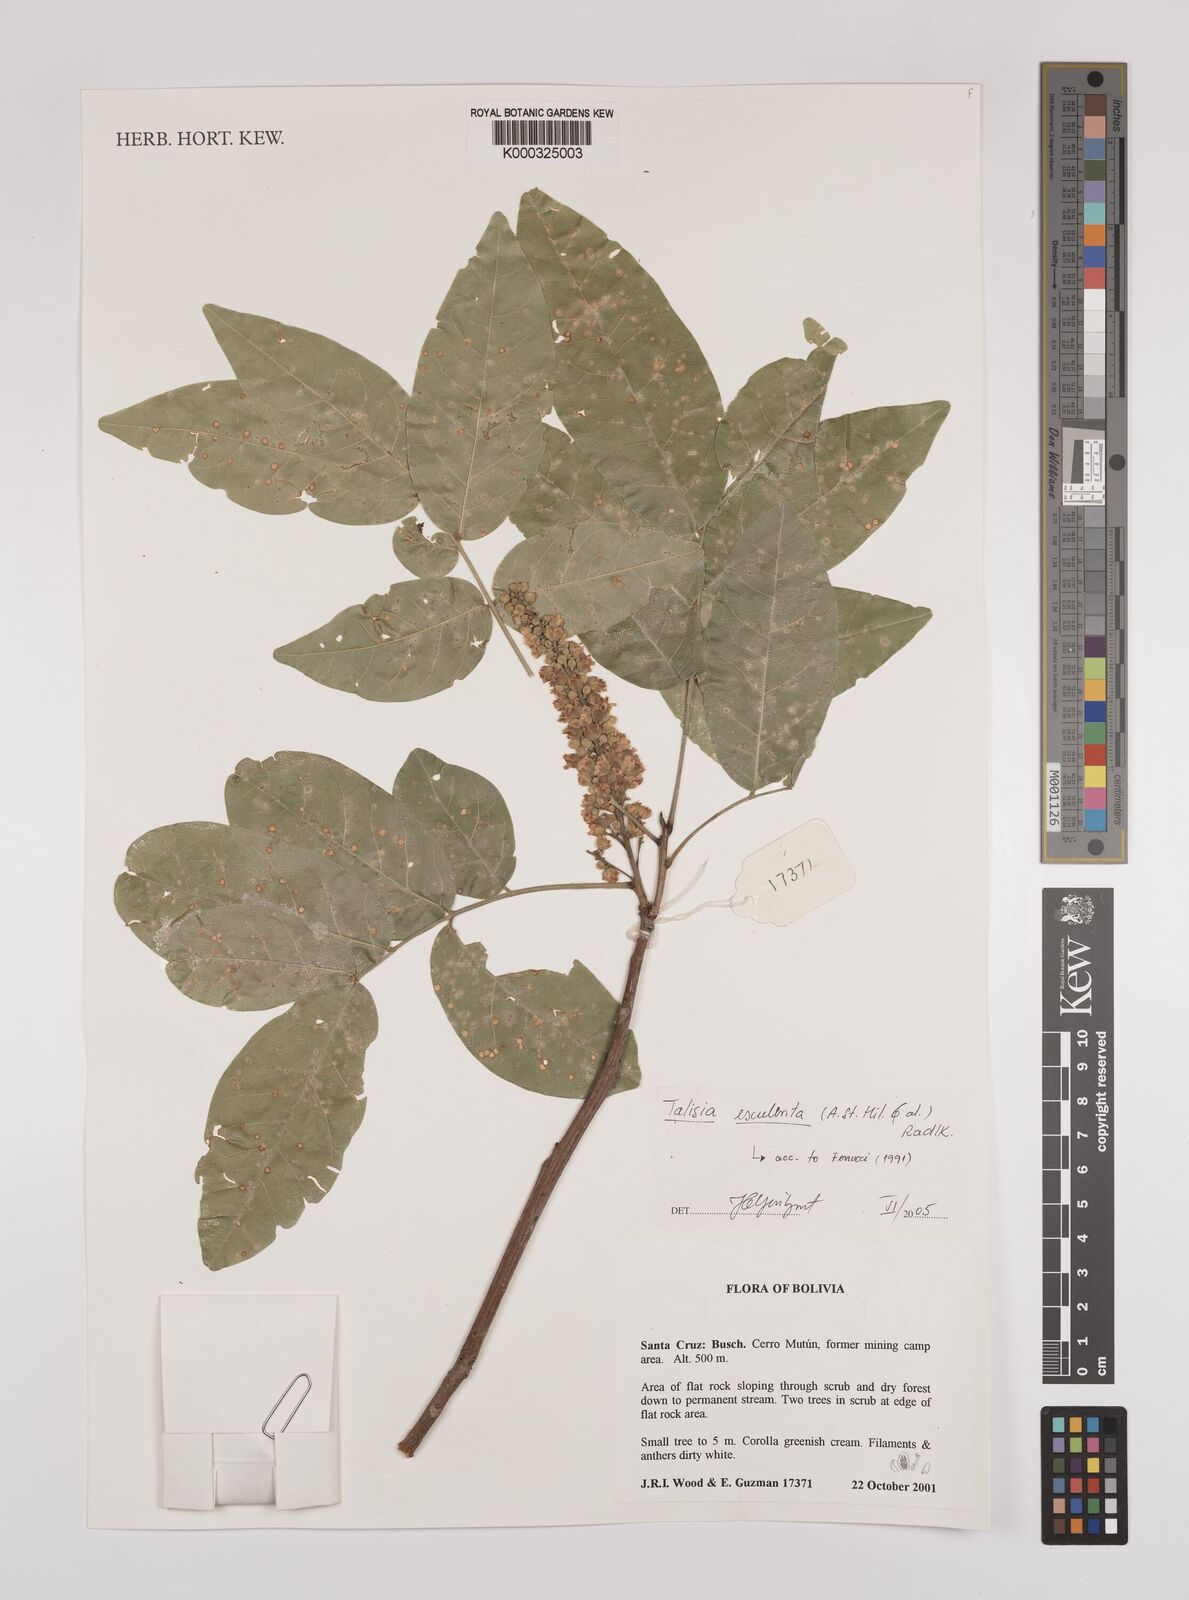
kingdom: Plantae
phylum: Tracheophyta
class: Magnoliopsida
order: Sapindales
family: Sapindaceae
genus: Talisia
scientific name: Talisia
